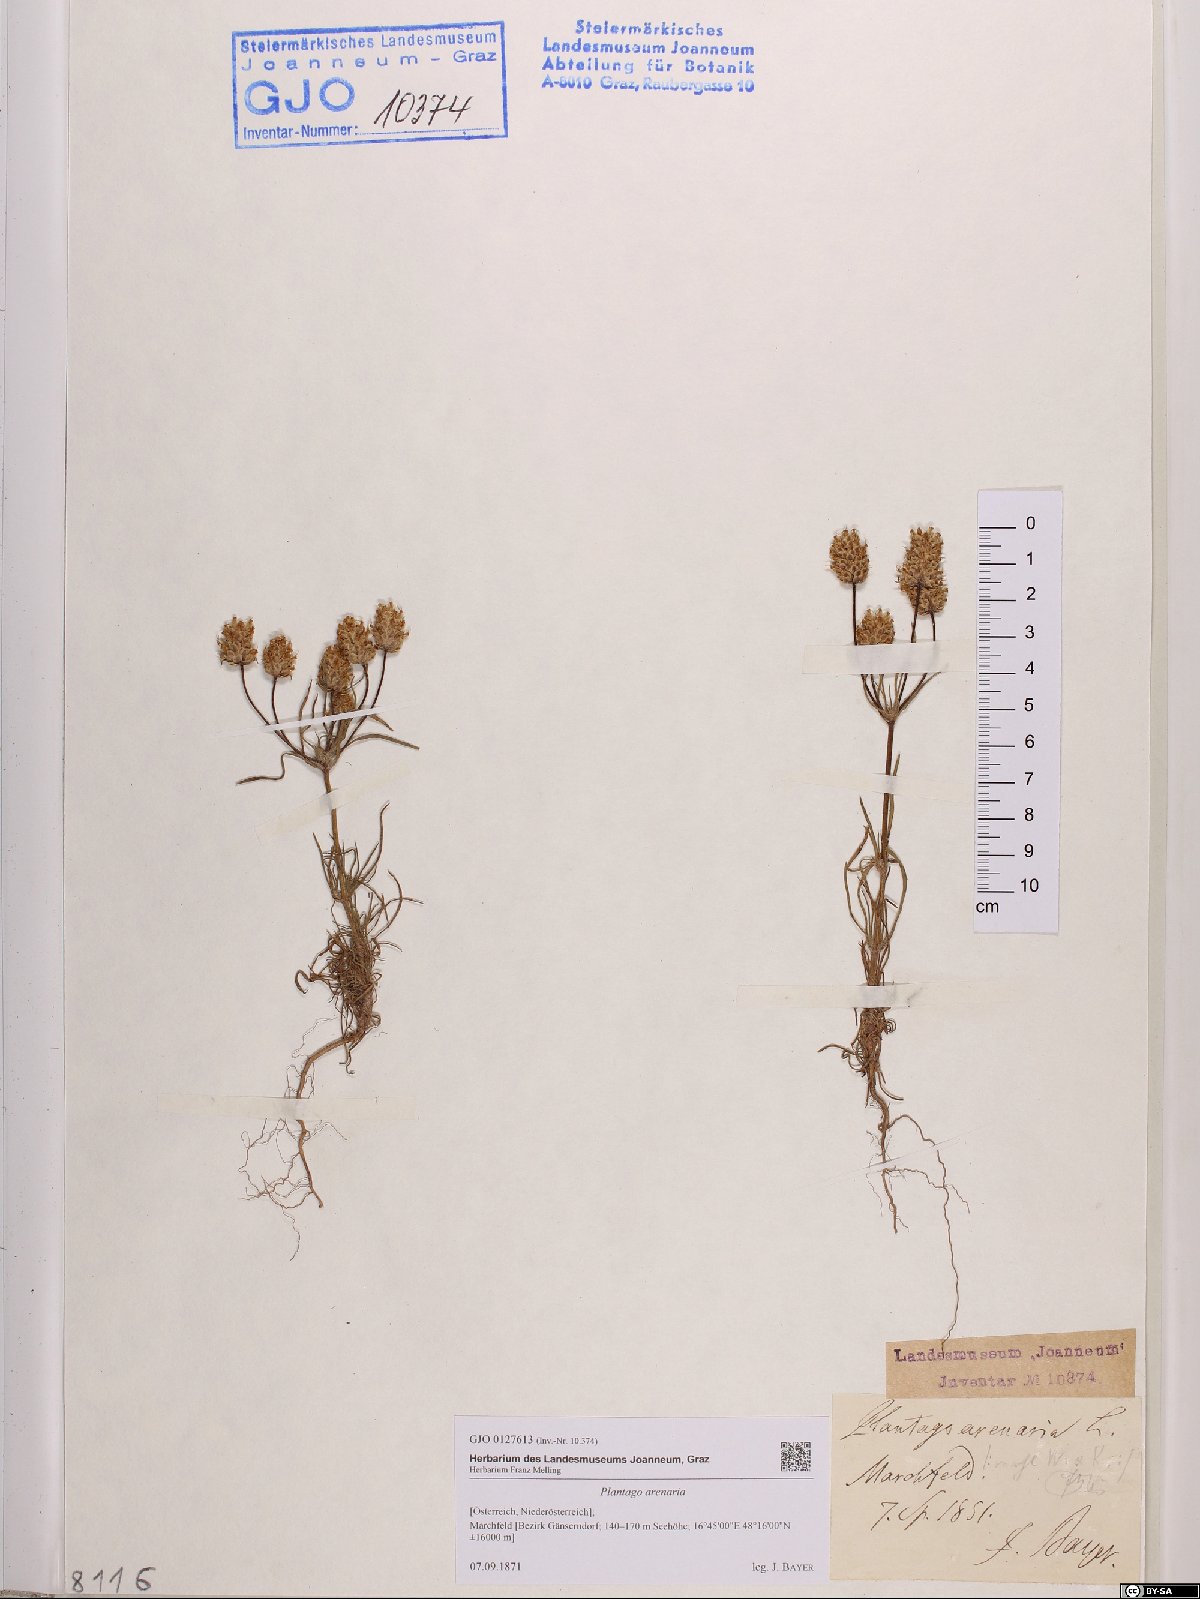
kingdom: Plantae
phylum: Tracheophyta
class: Magnoliopsida
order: Lamiales
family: Plantaginaceae
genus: Plantago
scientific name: Plantago arenaria
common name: Branched plantain
